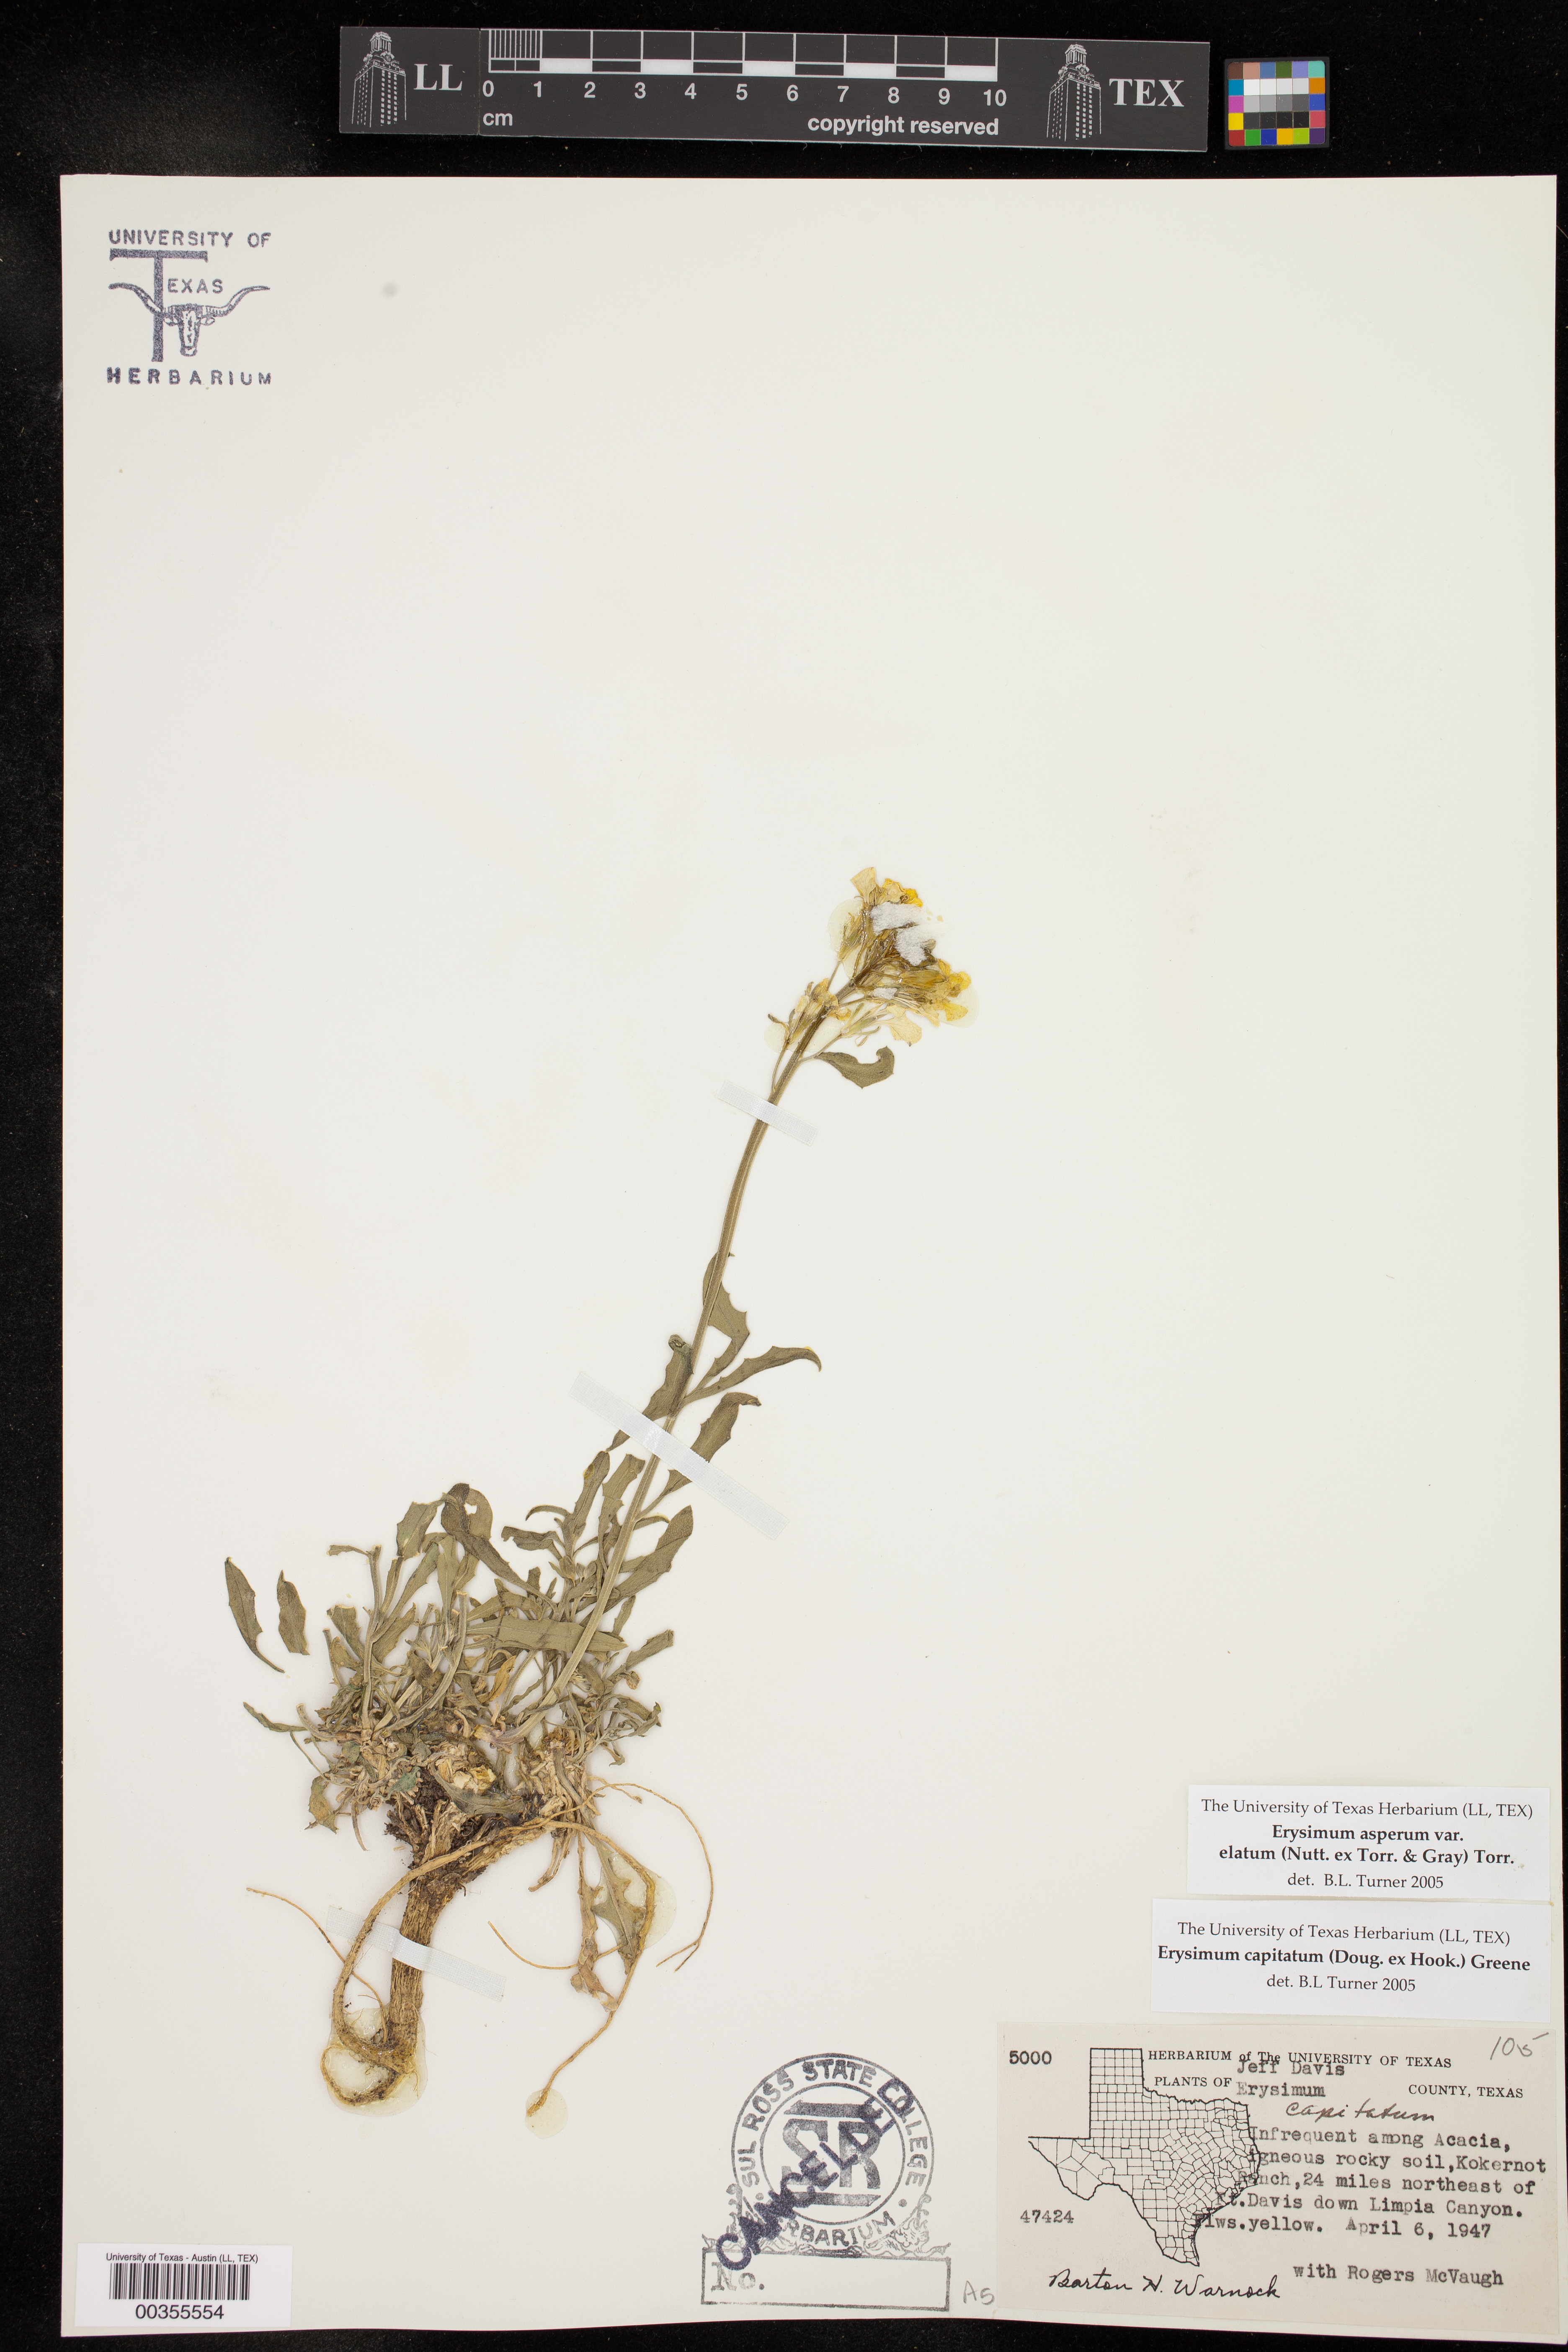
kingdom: Plantae
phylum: Tracheophyta
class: Magnoliopsida
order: Brassicales
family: Brassicaceae
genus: Erysimum
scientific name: Erysimum capitatum
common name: Western wallflower
